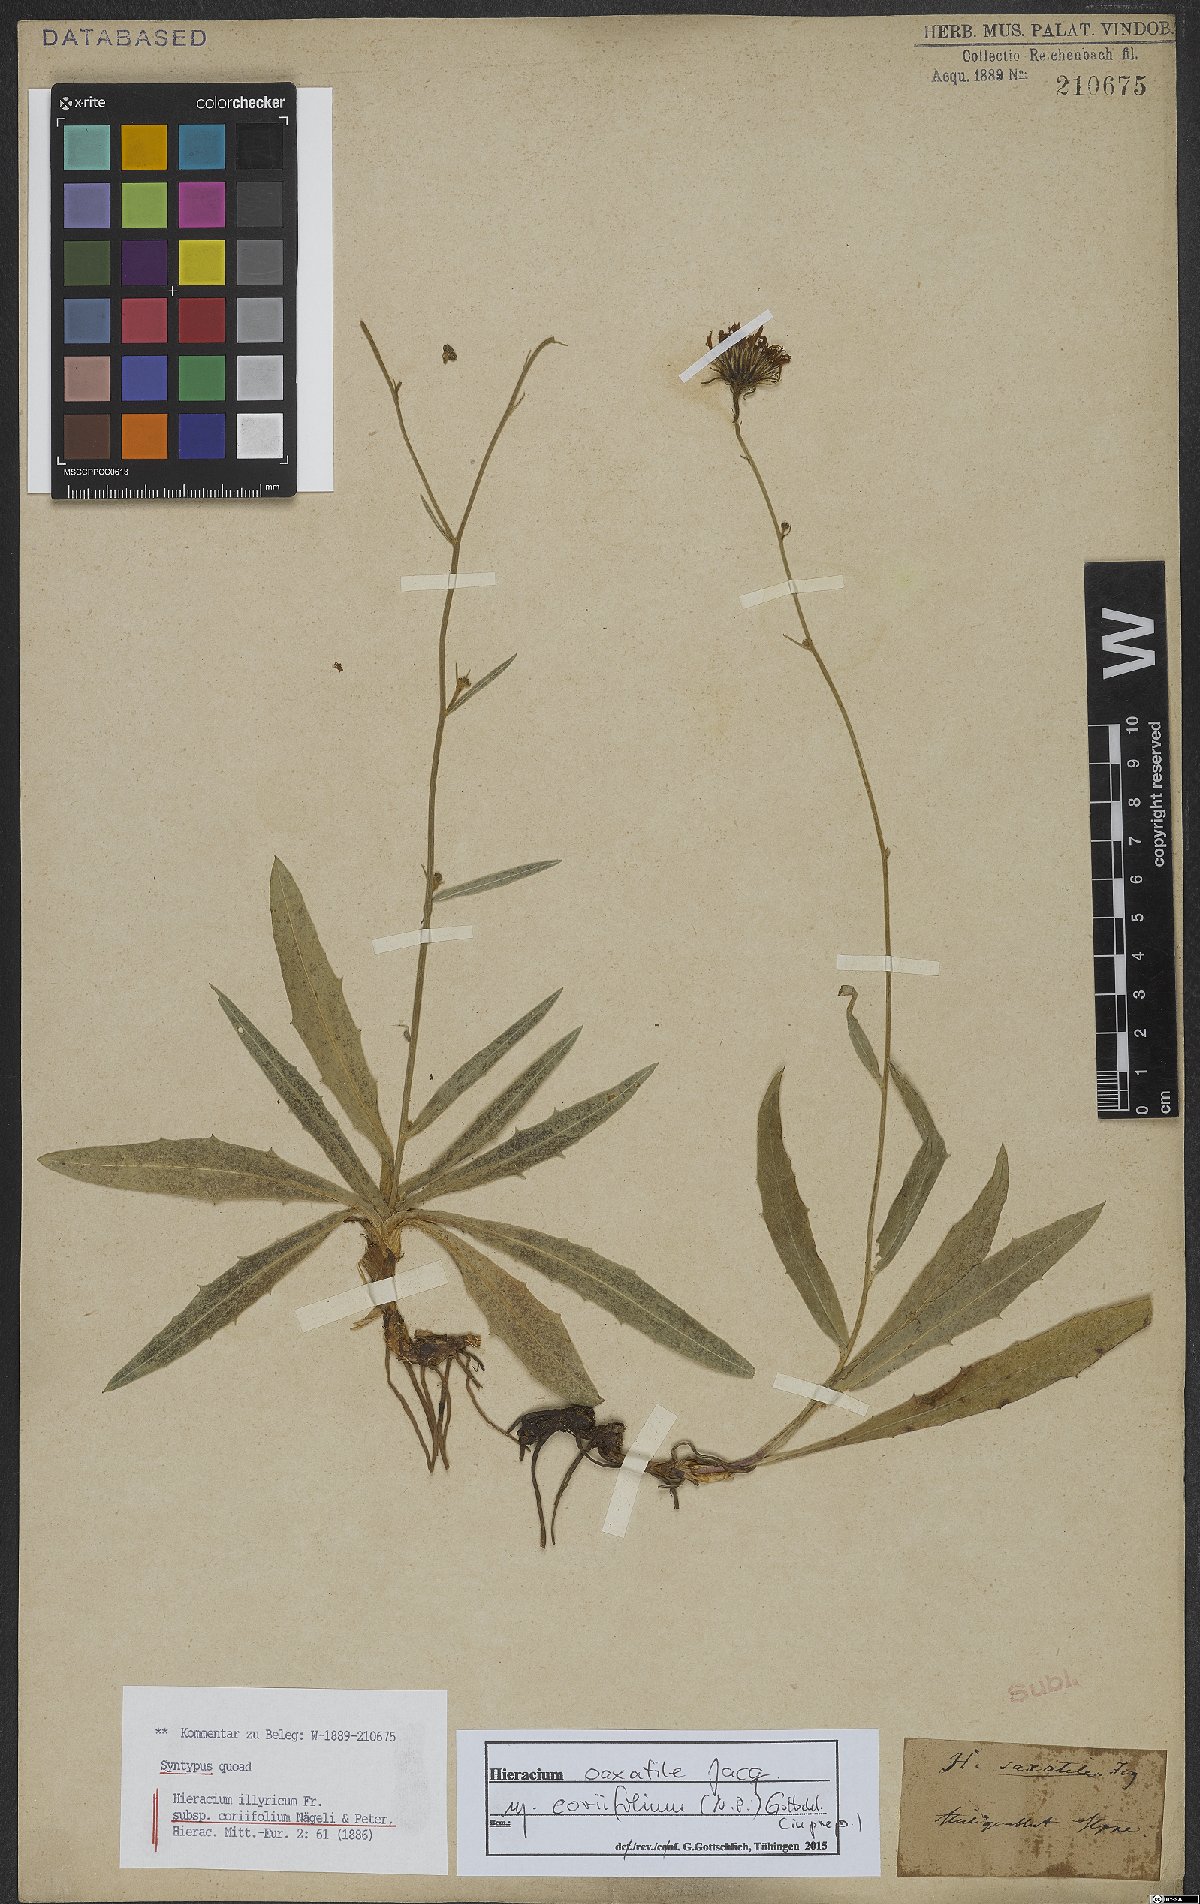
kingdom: Plantae
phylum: Tracheophyta
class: Magnoliopsida
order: Asterales
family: Asteraceae
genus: Hieracium
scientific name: Hieracium saxatile
